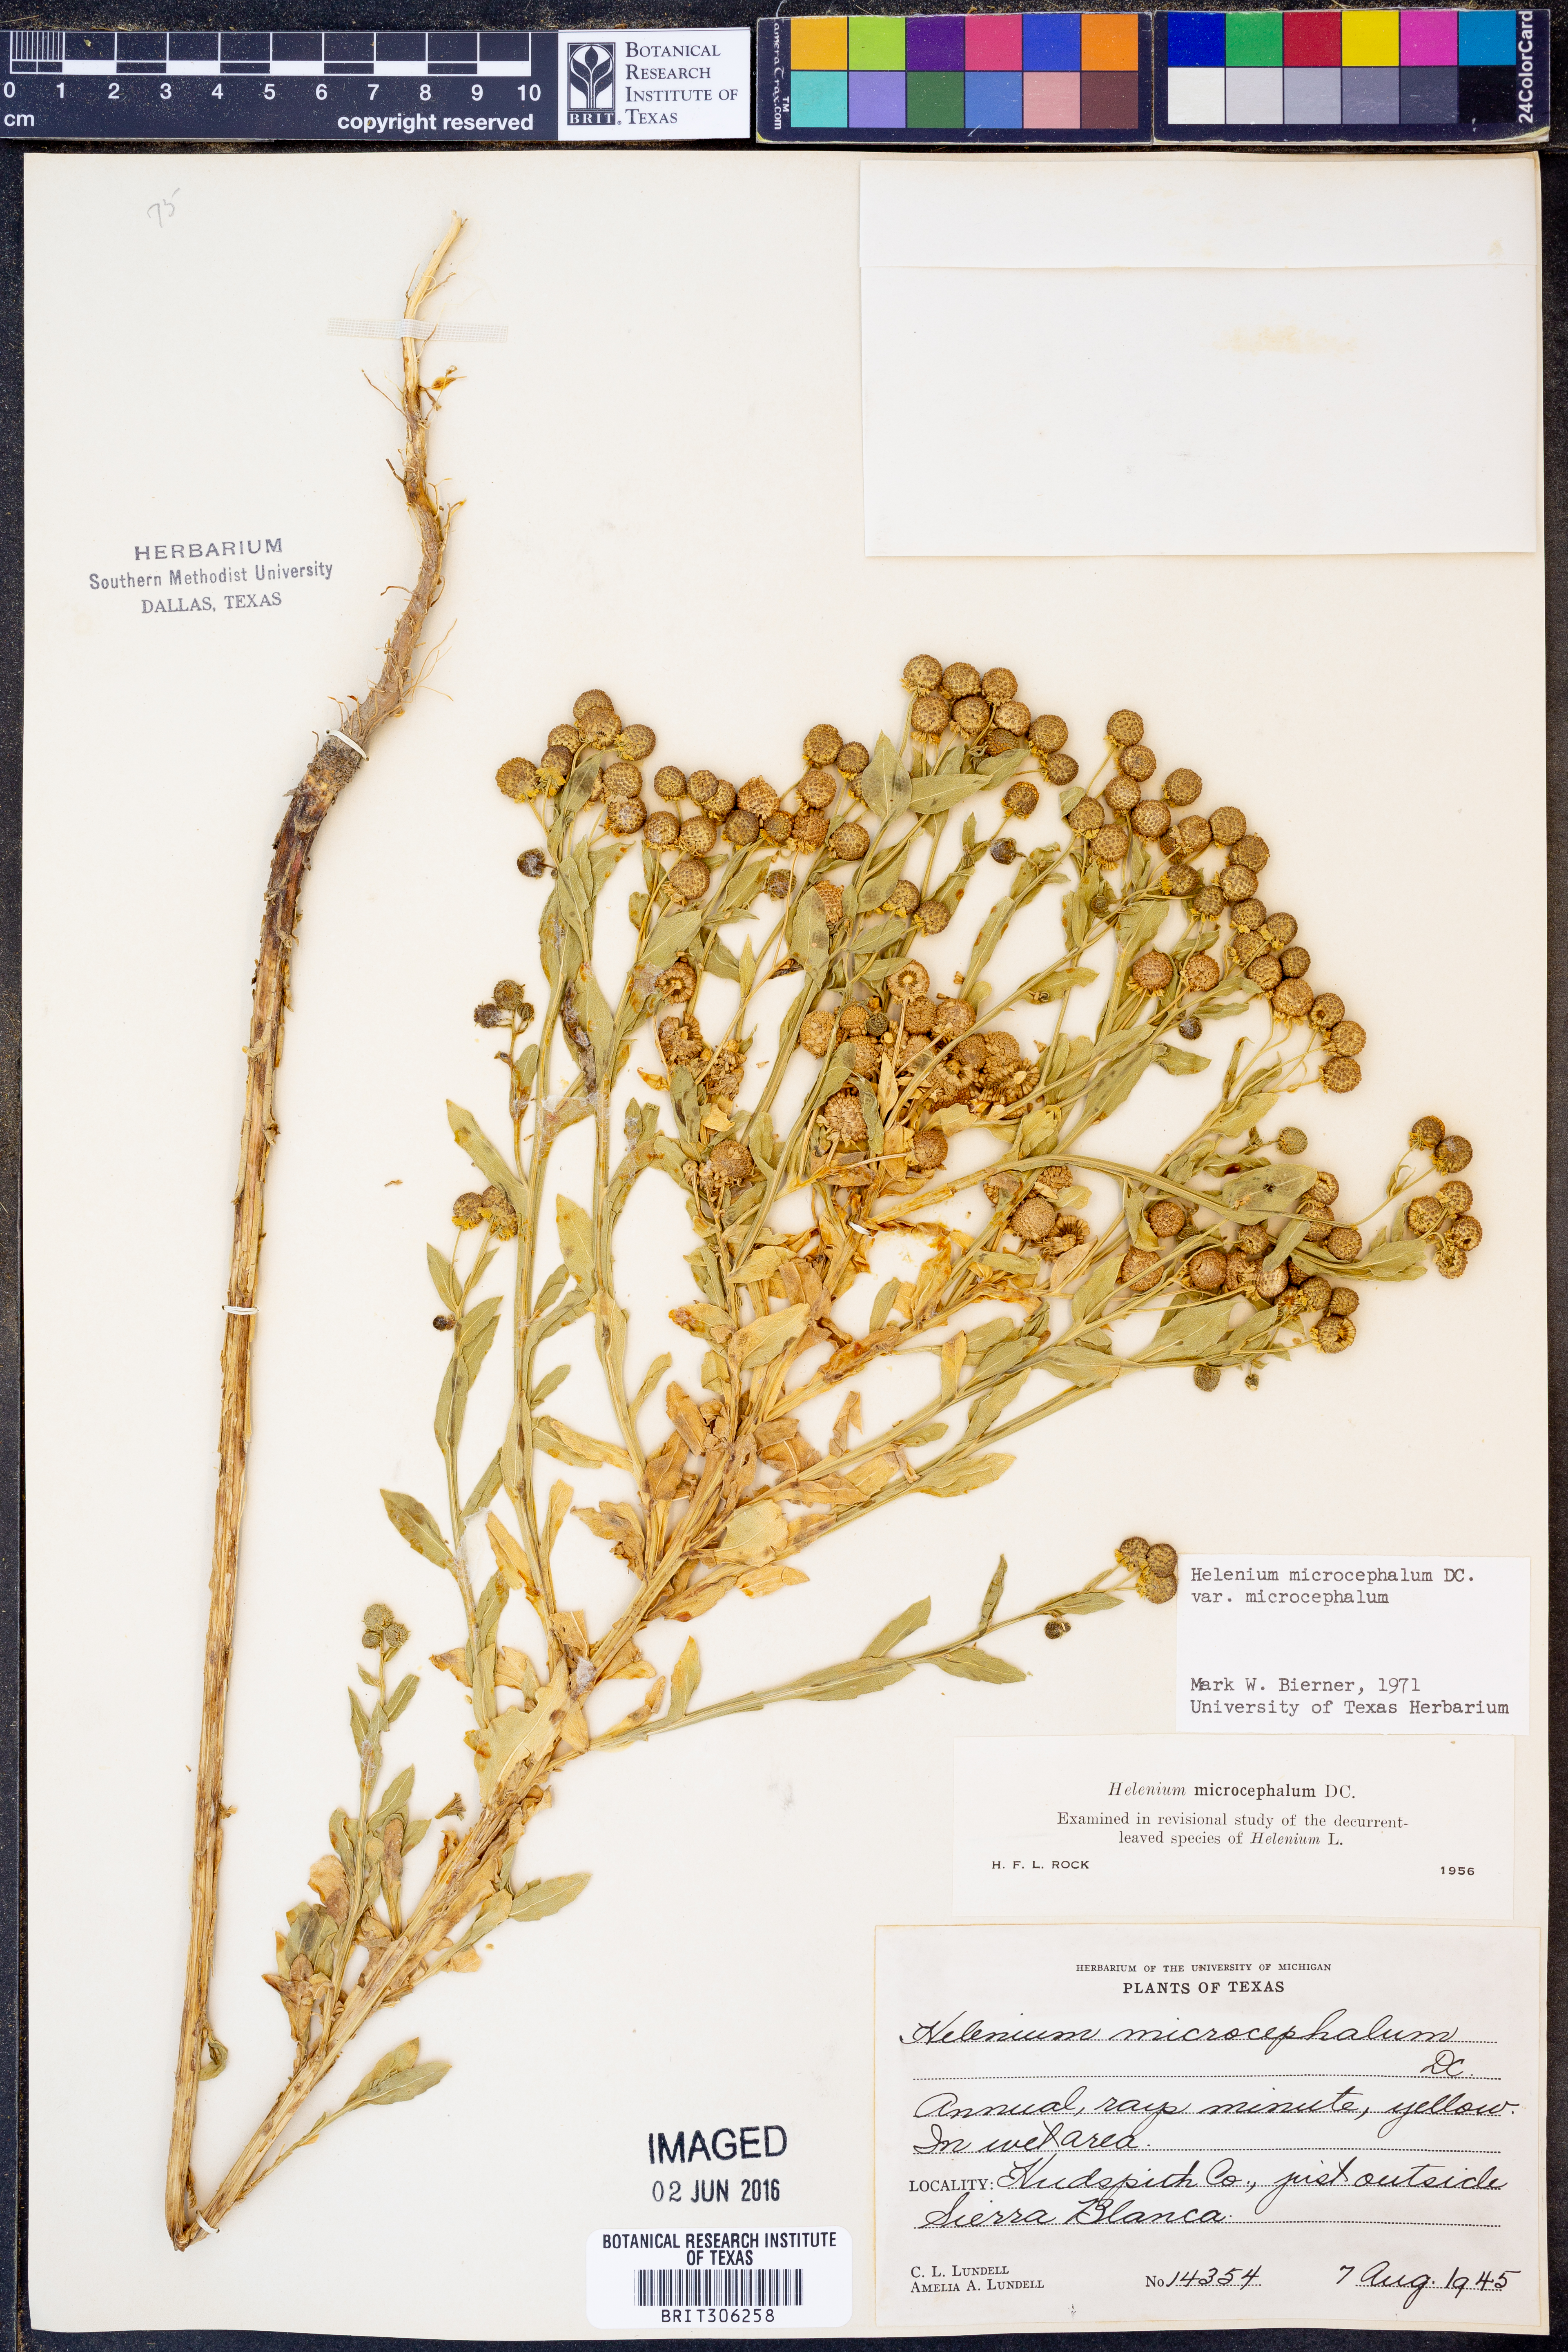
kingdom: Plantae
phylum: Tracheophyta
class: Magnoliopsida
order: Asterales
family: Asteraceae
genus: Helenium
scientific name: Helenium microcephalum
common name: Smallhead sneezeweed
